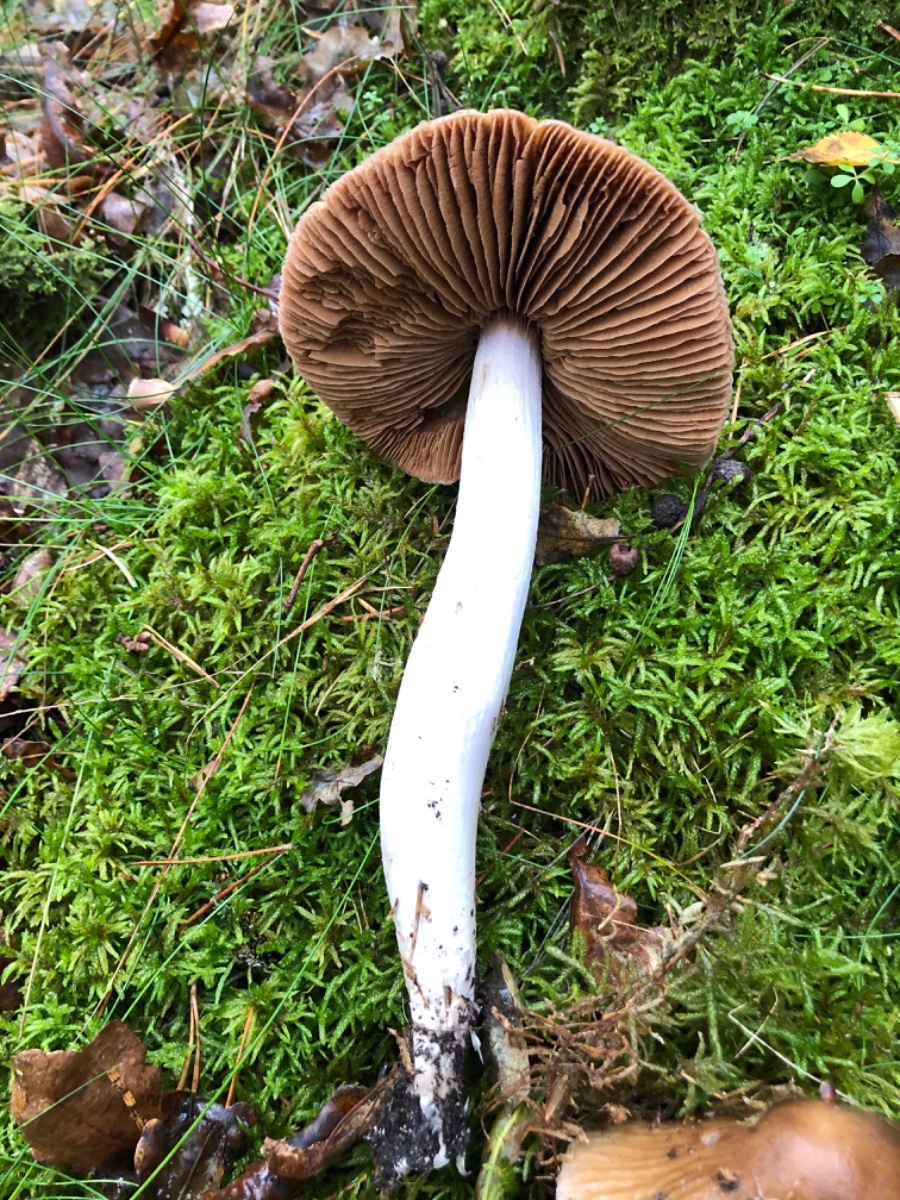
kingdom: Fungi
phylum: Basidiomycota
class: Agaricomycetes
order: Agaricales
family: Cortinariaceae
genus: Cortinarius
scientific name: Cortinarius
